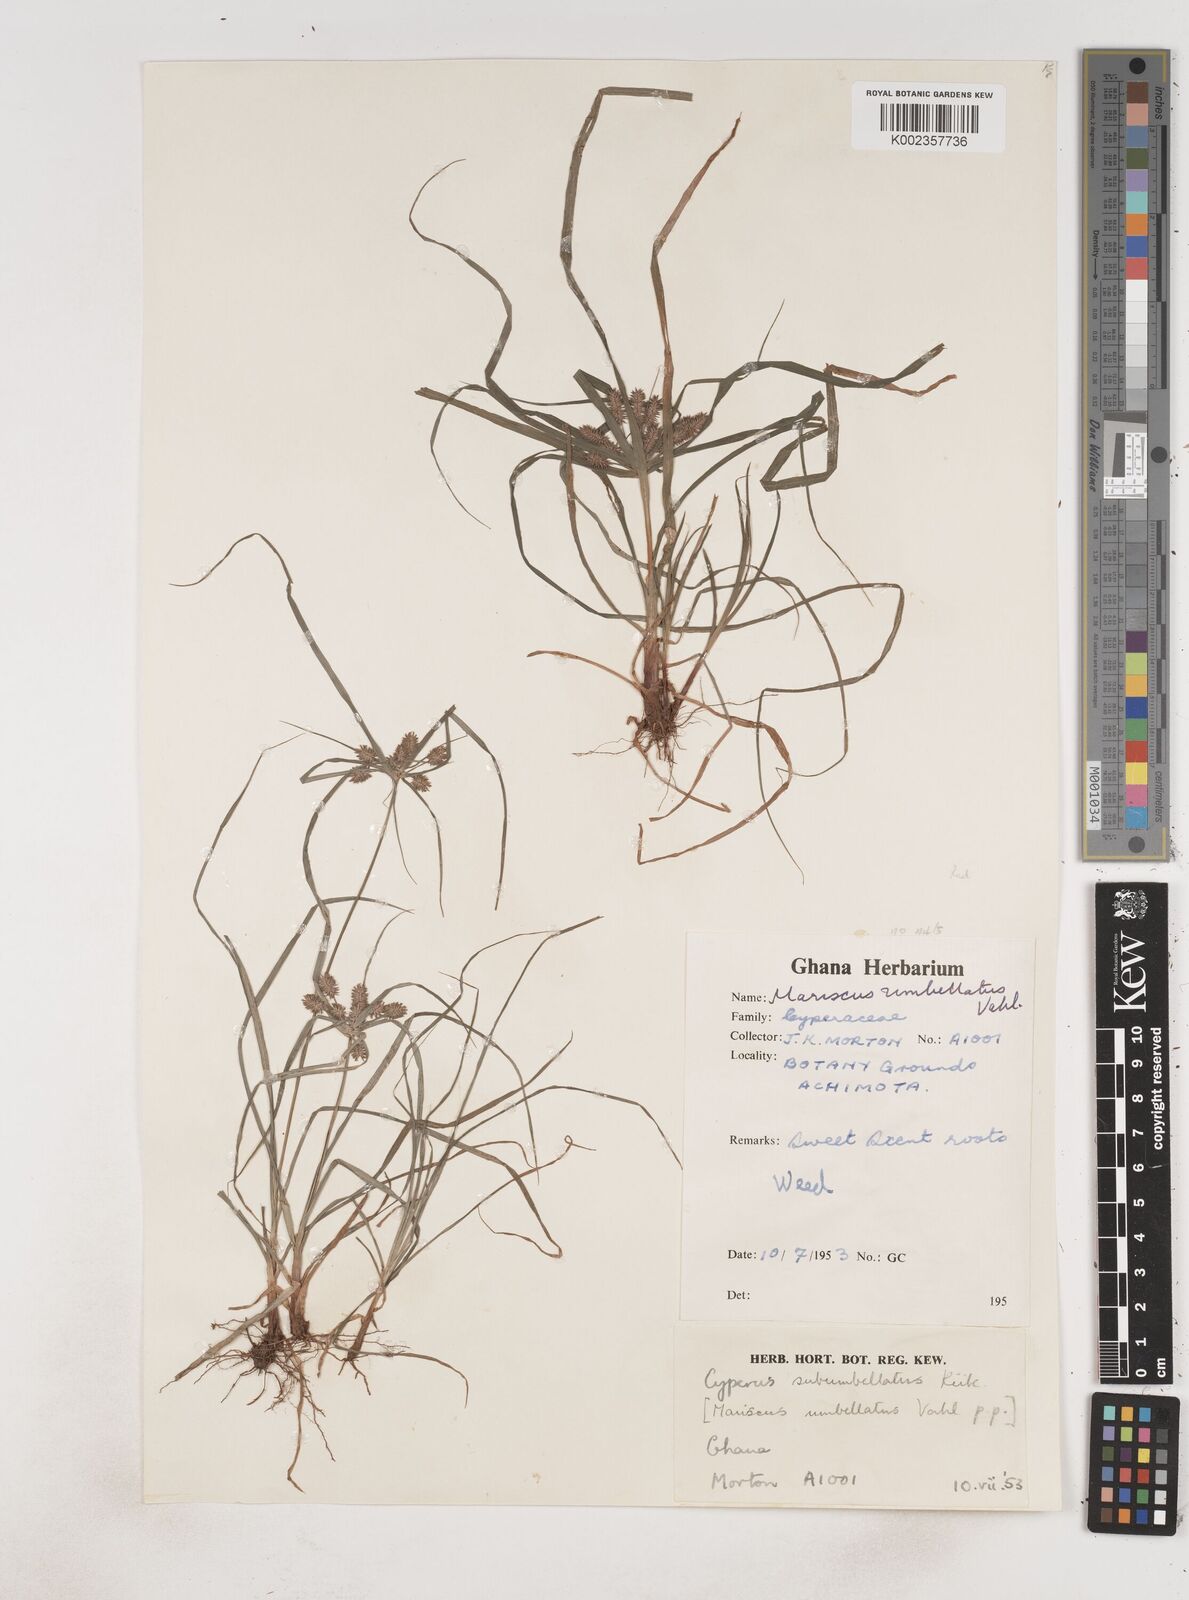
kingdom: Plantae
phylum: Tracheophyta
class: Liliopsida
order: Poales
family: Cyperaceae
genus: Cyperus
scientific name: Cyperus sublimis
